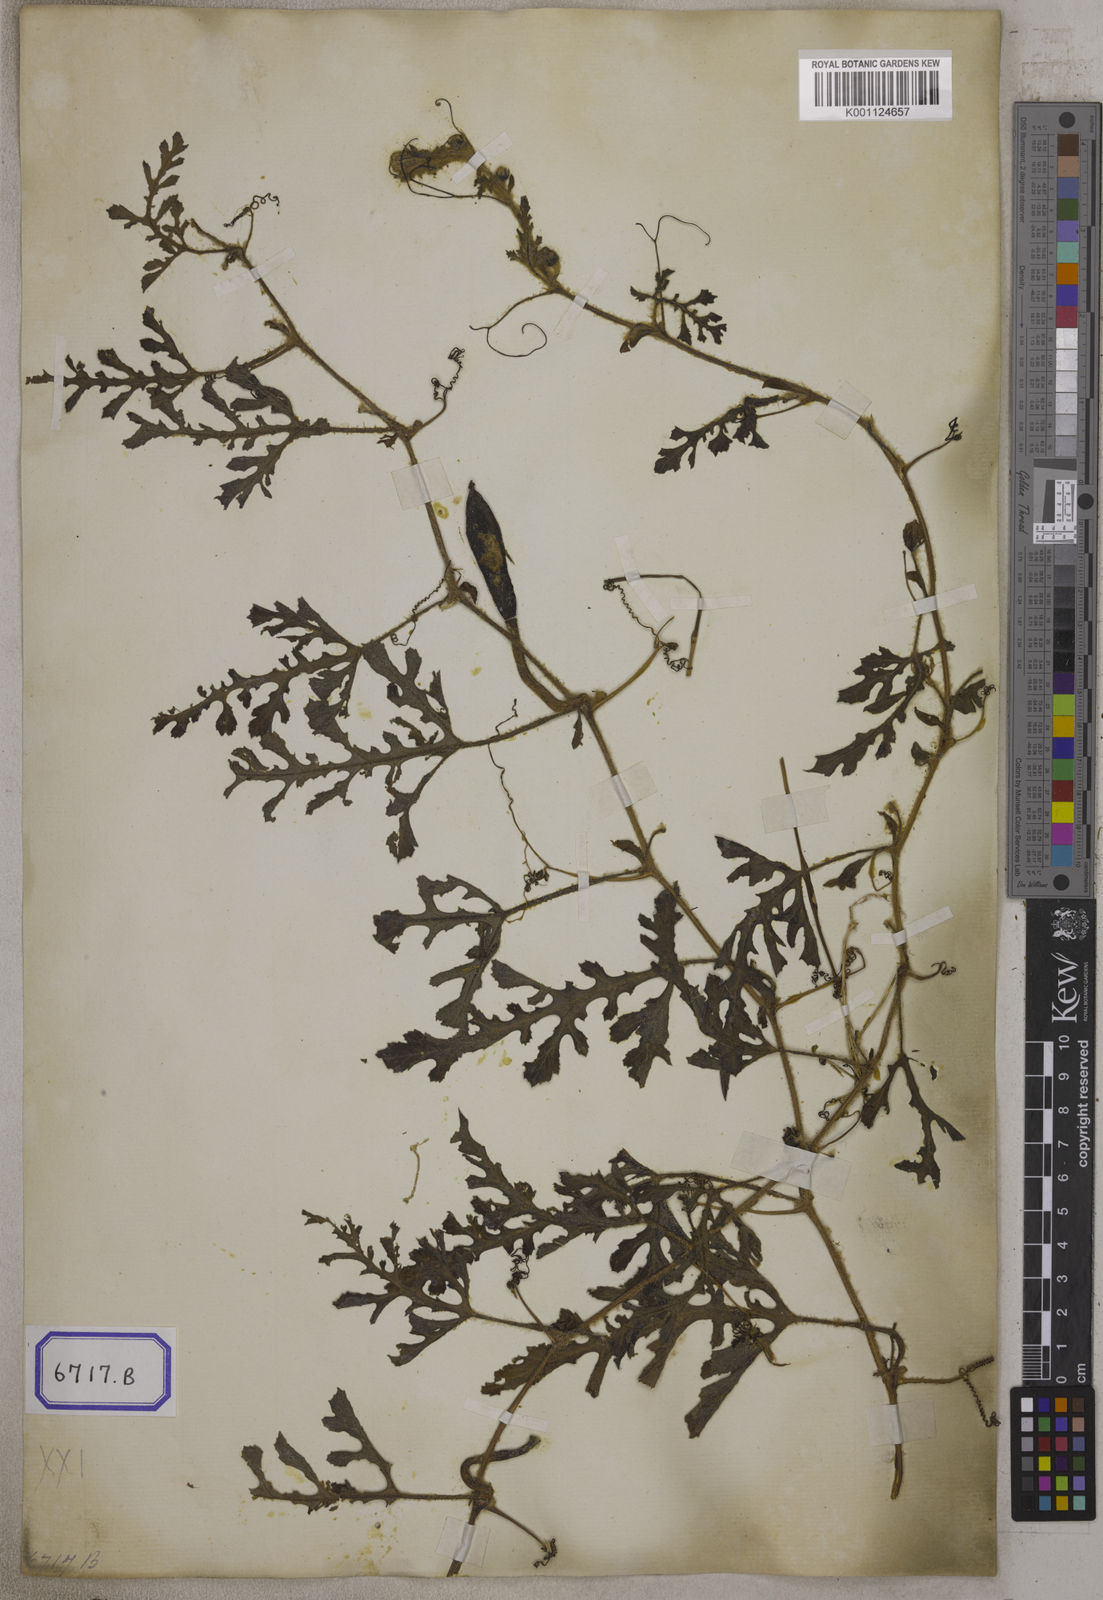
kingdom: Plantae
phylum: Tracheophyta
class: Magnoliopsida
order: Cucurbitales
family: Cucurbitaceae
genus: Citrullus
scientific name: Citrullus lanatus
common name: Watermelon
